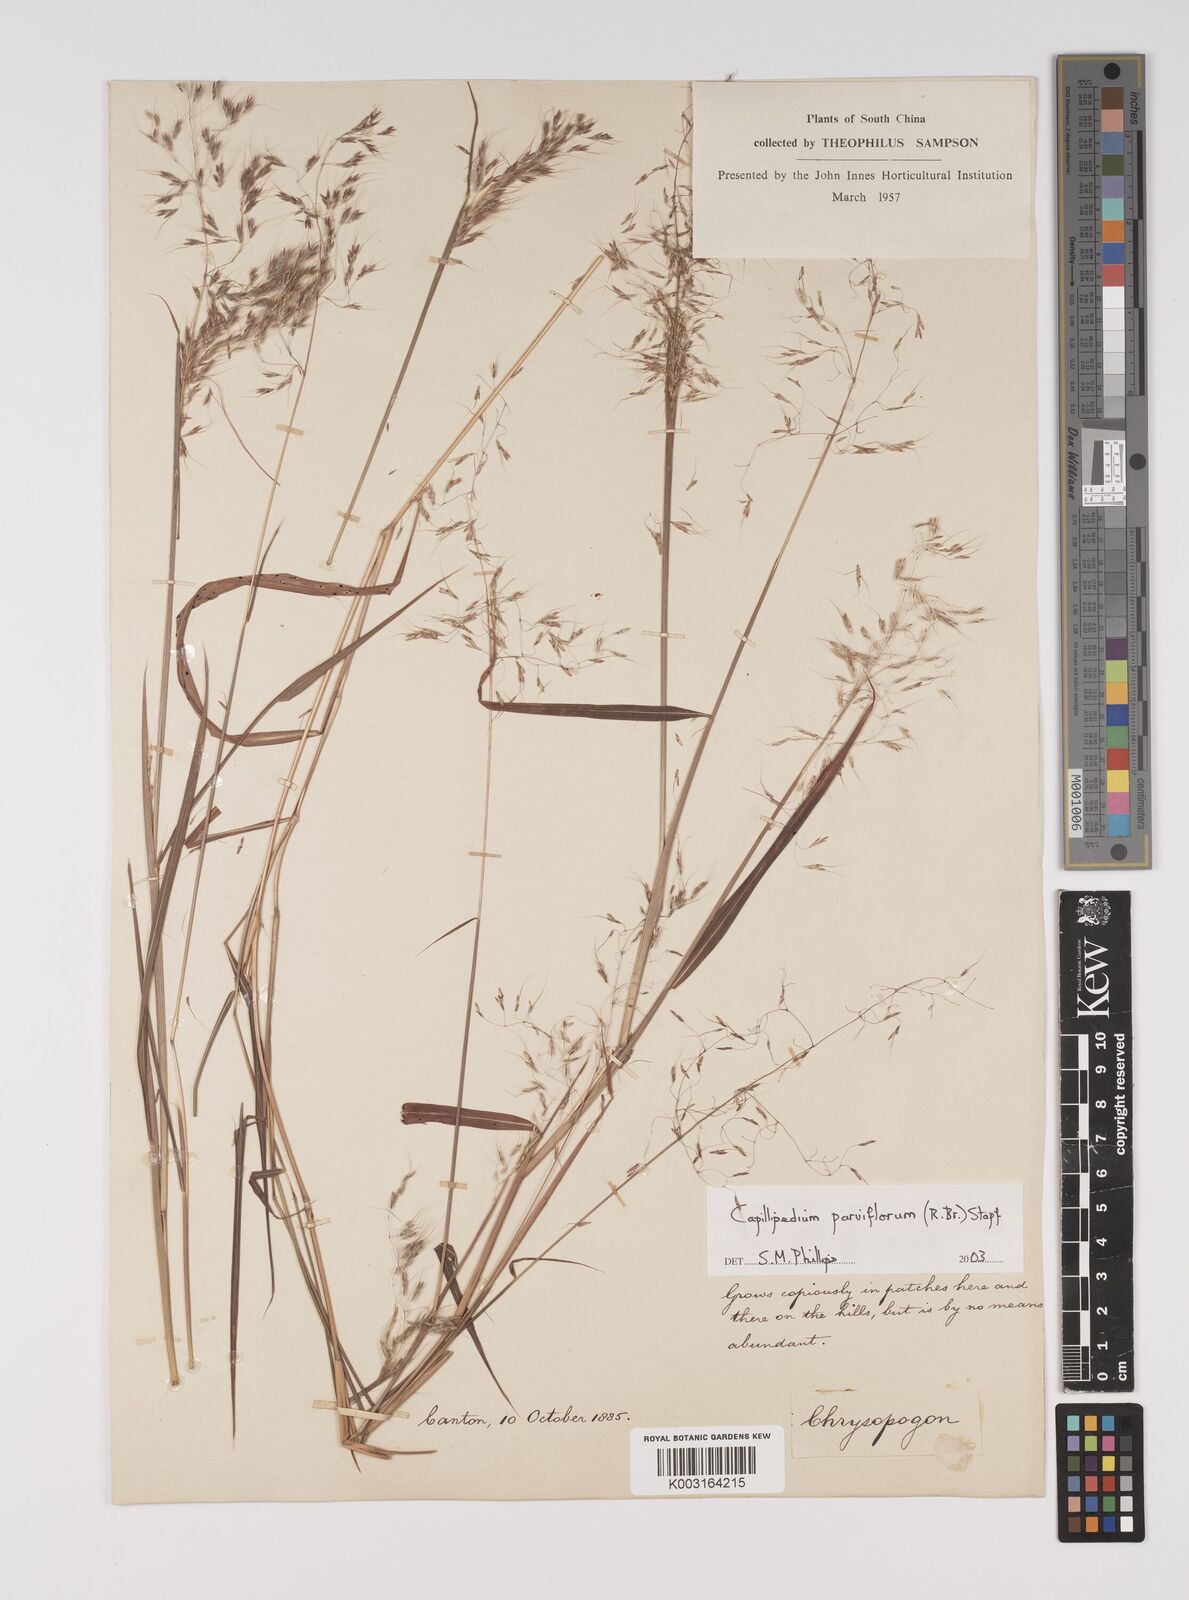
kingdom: Plantae
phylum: Tracheophyta
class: Liliopsida
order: Poales
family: Poaceae
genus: Capillipedium
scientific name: Capillipedium parviflorum
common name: Golden-beard
